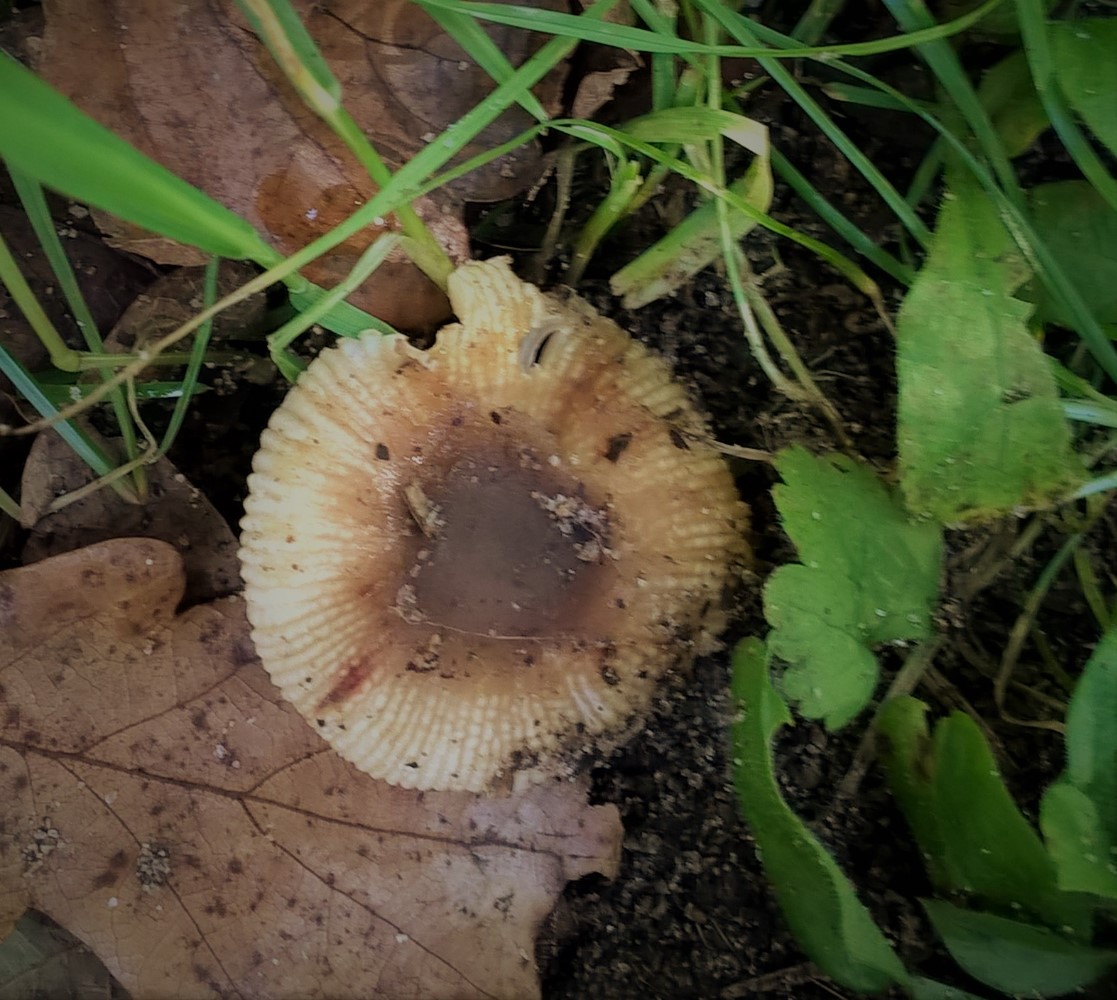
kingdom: Fungi
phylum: Basidiomycota
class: Agaricomycetes
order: Russulales
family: Russulaceae
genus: Russula
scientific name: Russula recondita
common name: mild kam-skørhat
